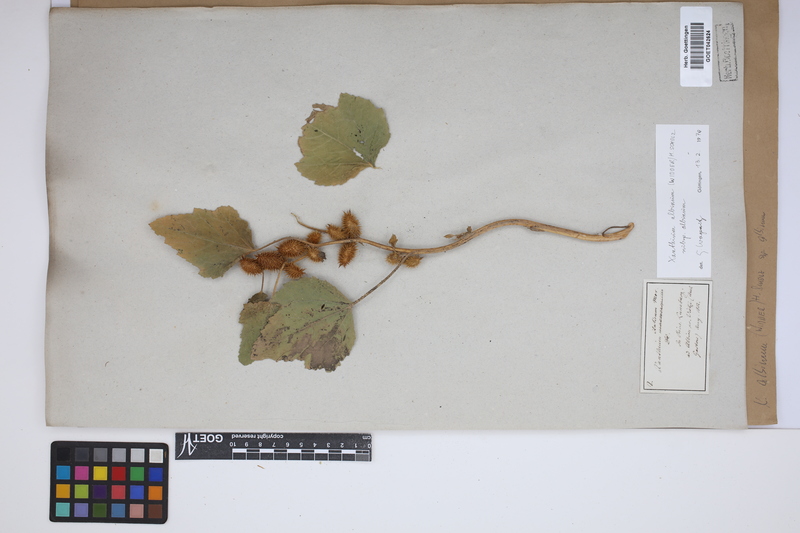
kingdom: Plantae
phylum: Tracheophyta
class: Magnoliopsida
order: Asterales
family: Asteraceae
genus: Xanthium
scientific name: Xanthium orientale
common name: Californian burr
